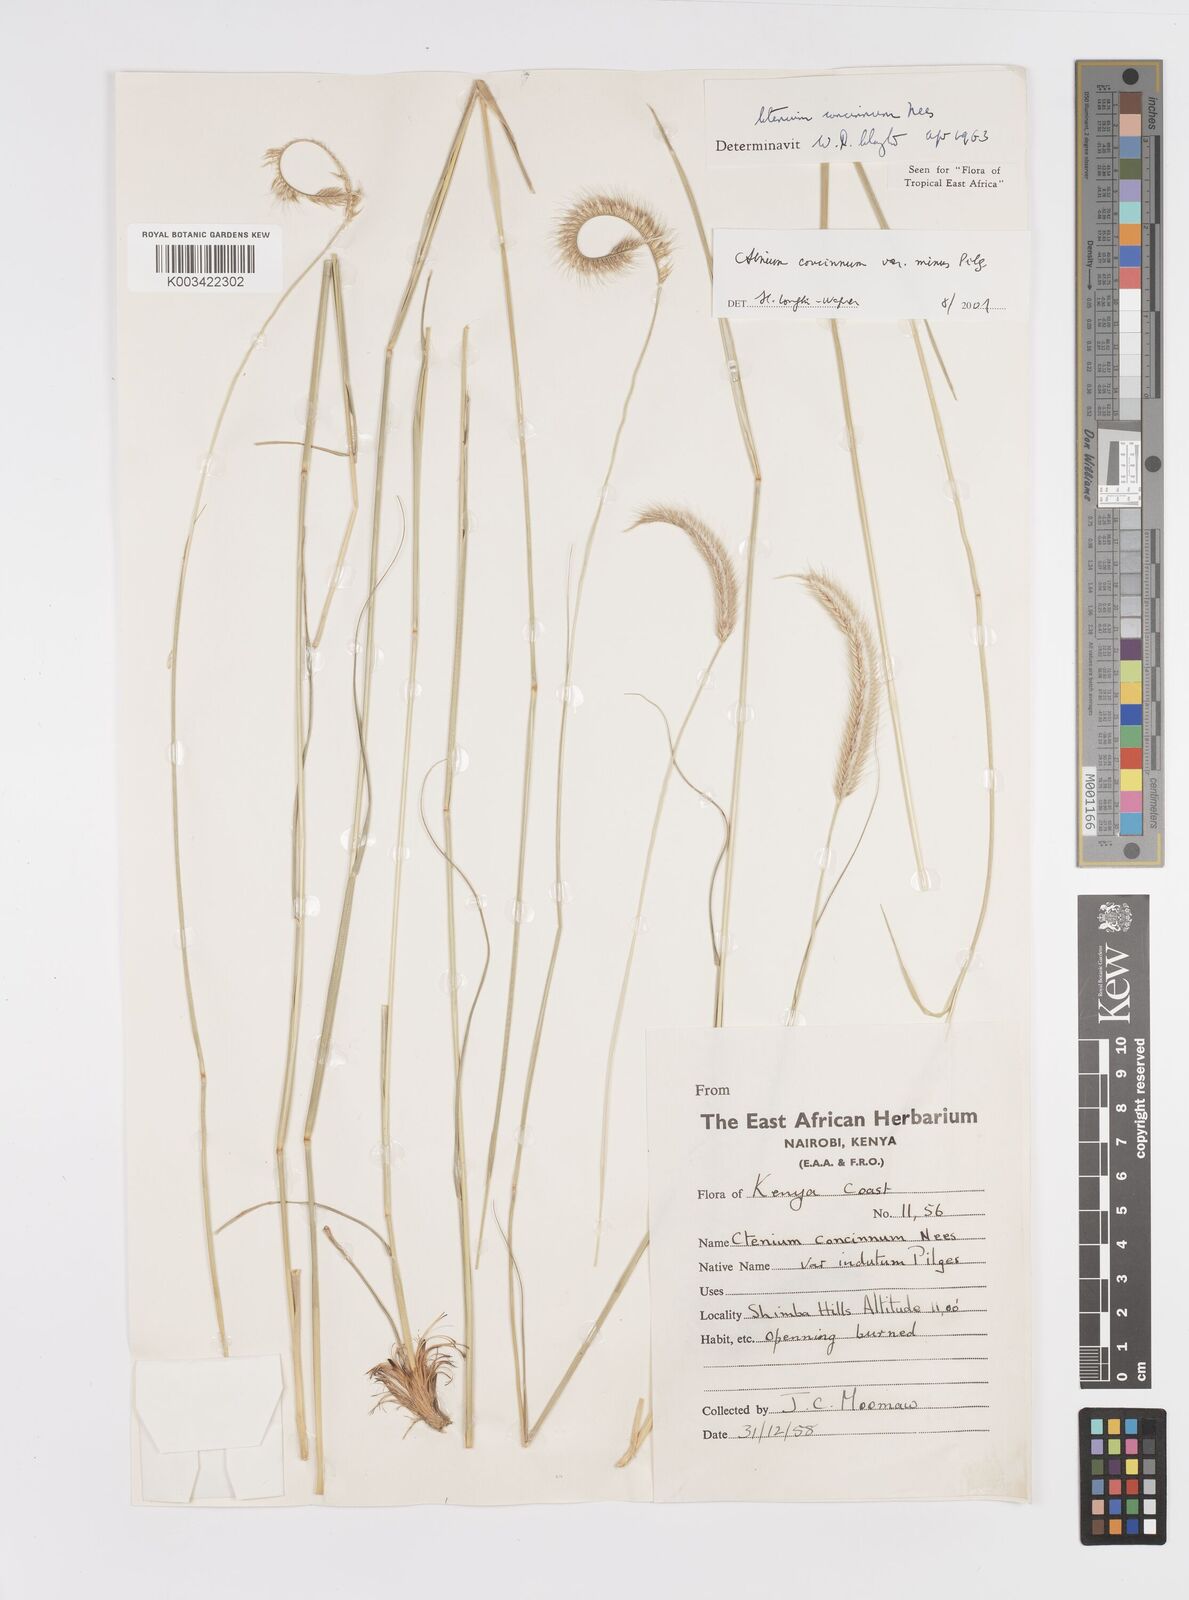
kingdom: Plantae
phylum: Tracheophyta
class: Liliopsida
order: Poales
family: Poaceae
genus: Ctenium
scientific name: Ctenium concinnum
